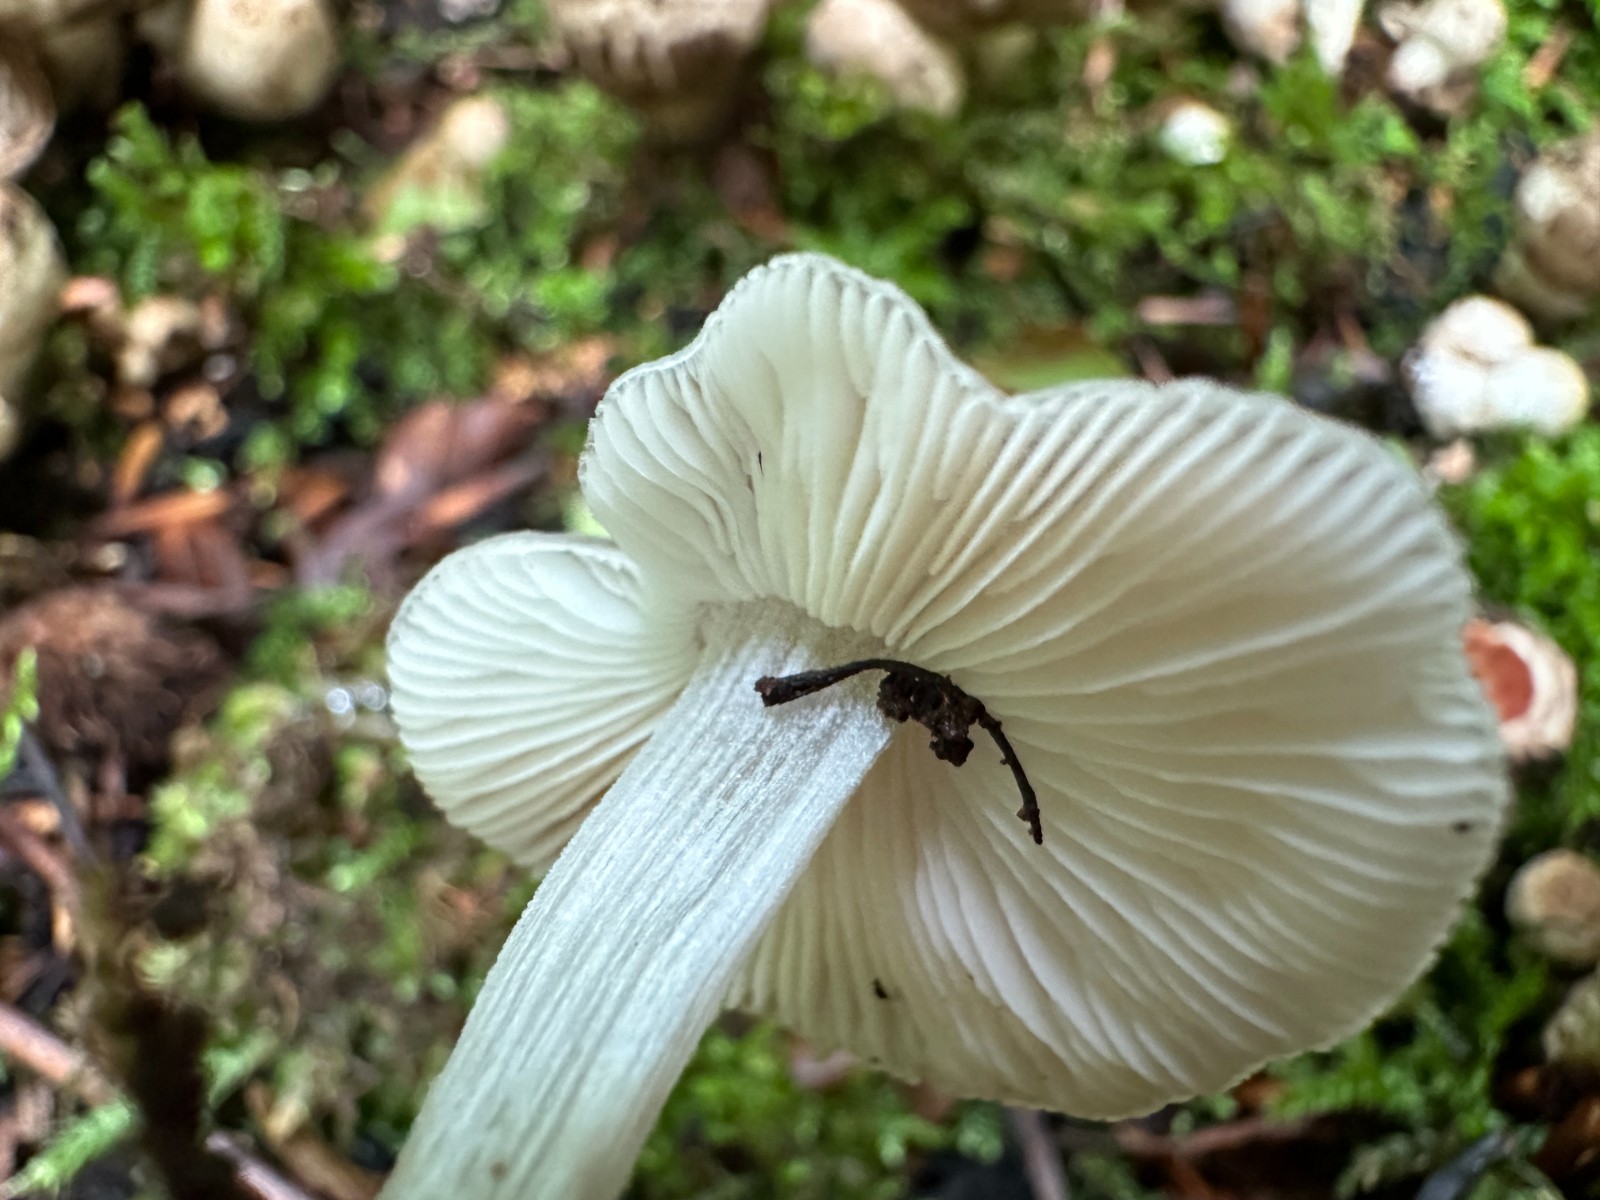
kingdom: Fungi
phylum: Basidiomycota
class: Agaricomycetes
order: Agaricales
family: Pluteaceae
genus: Pluteus
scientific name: Pluteus
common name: gråstokket skærmhat
